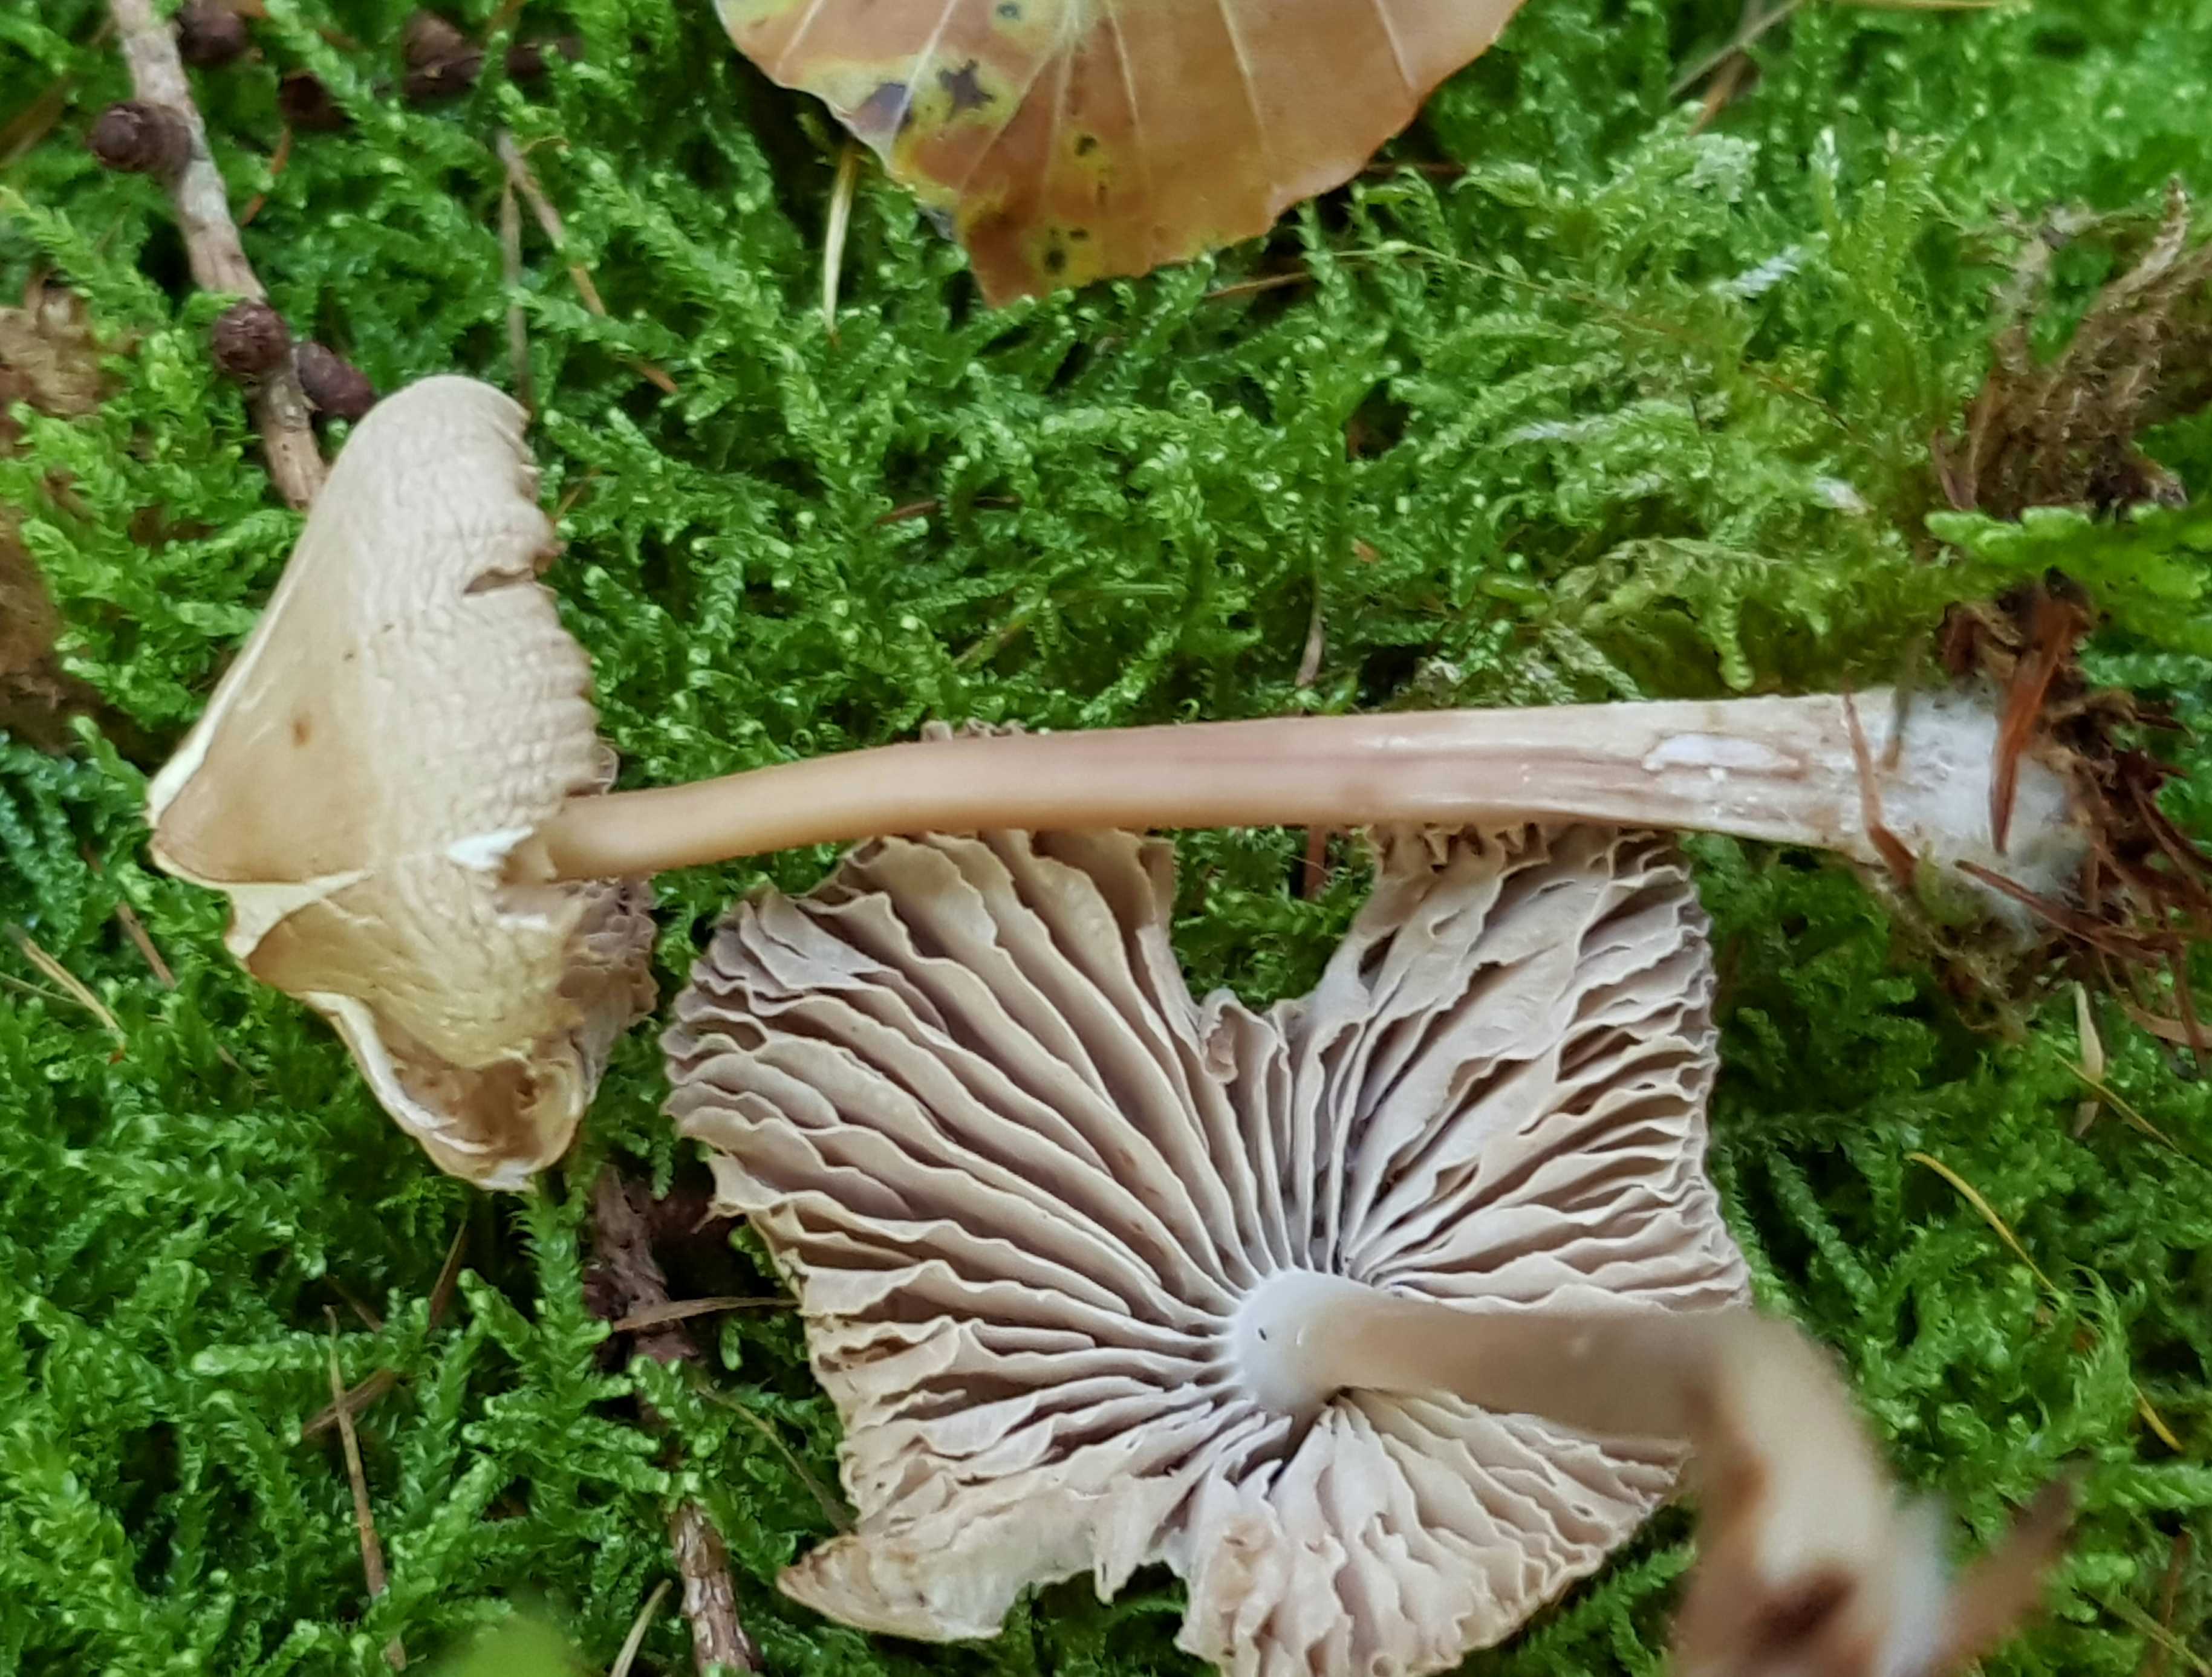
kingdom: Fungi
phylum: Basidiomycota
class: Agaricomycetes
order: Agaricales
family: Mycenaceae
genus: Mycena
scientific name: Mycena galericulata
